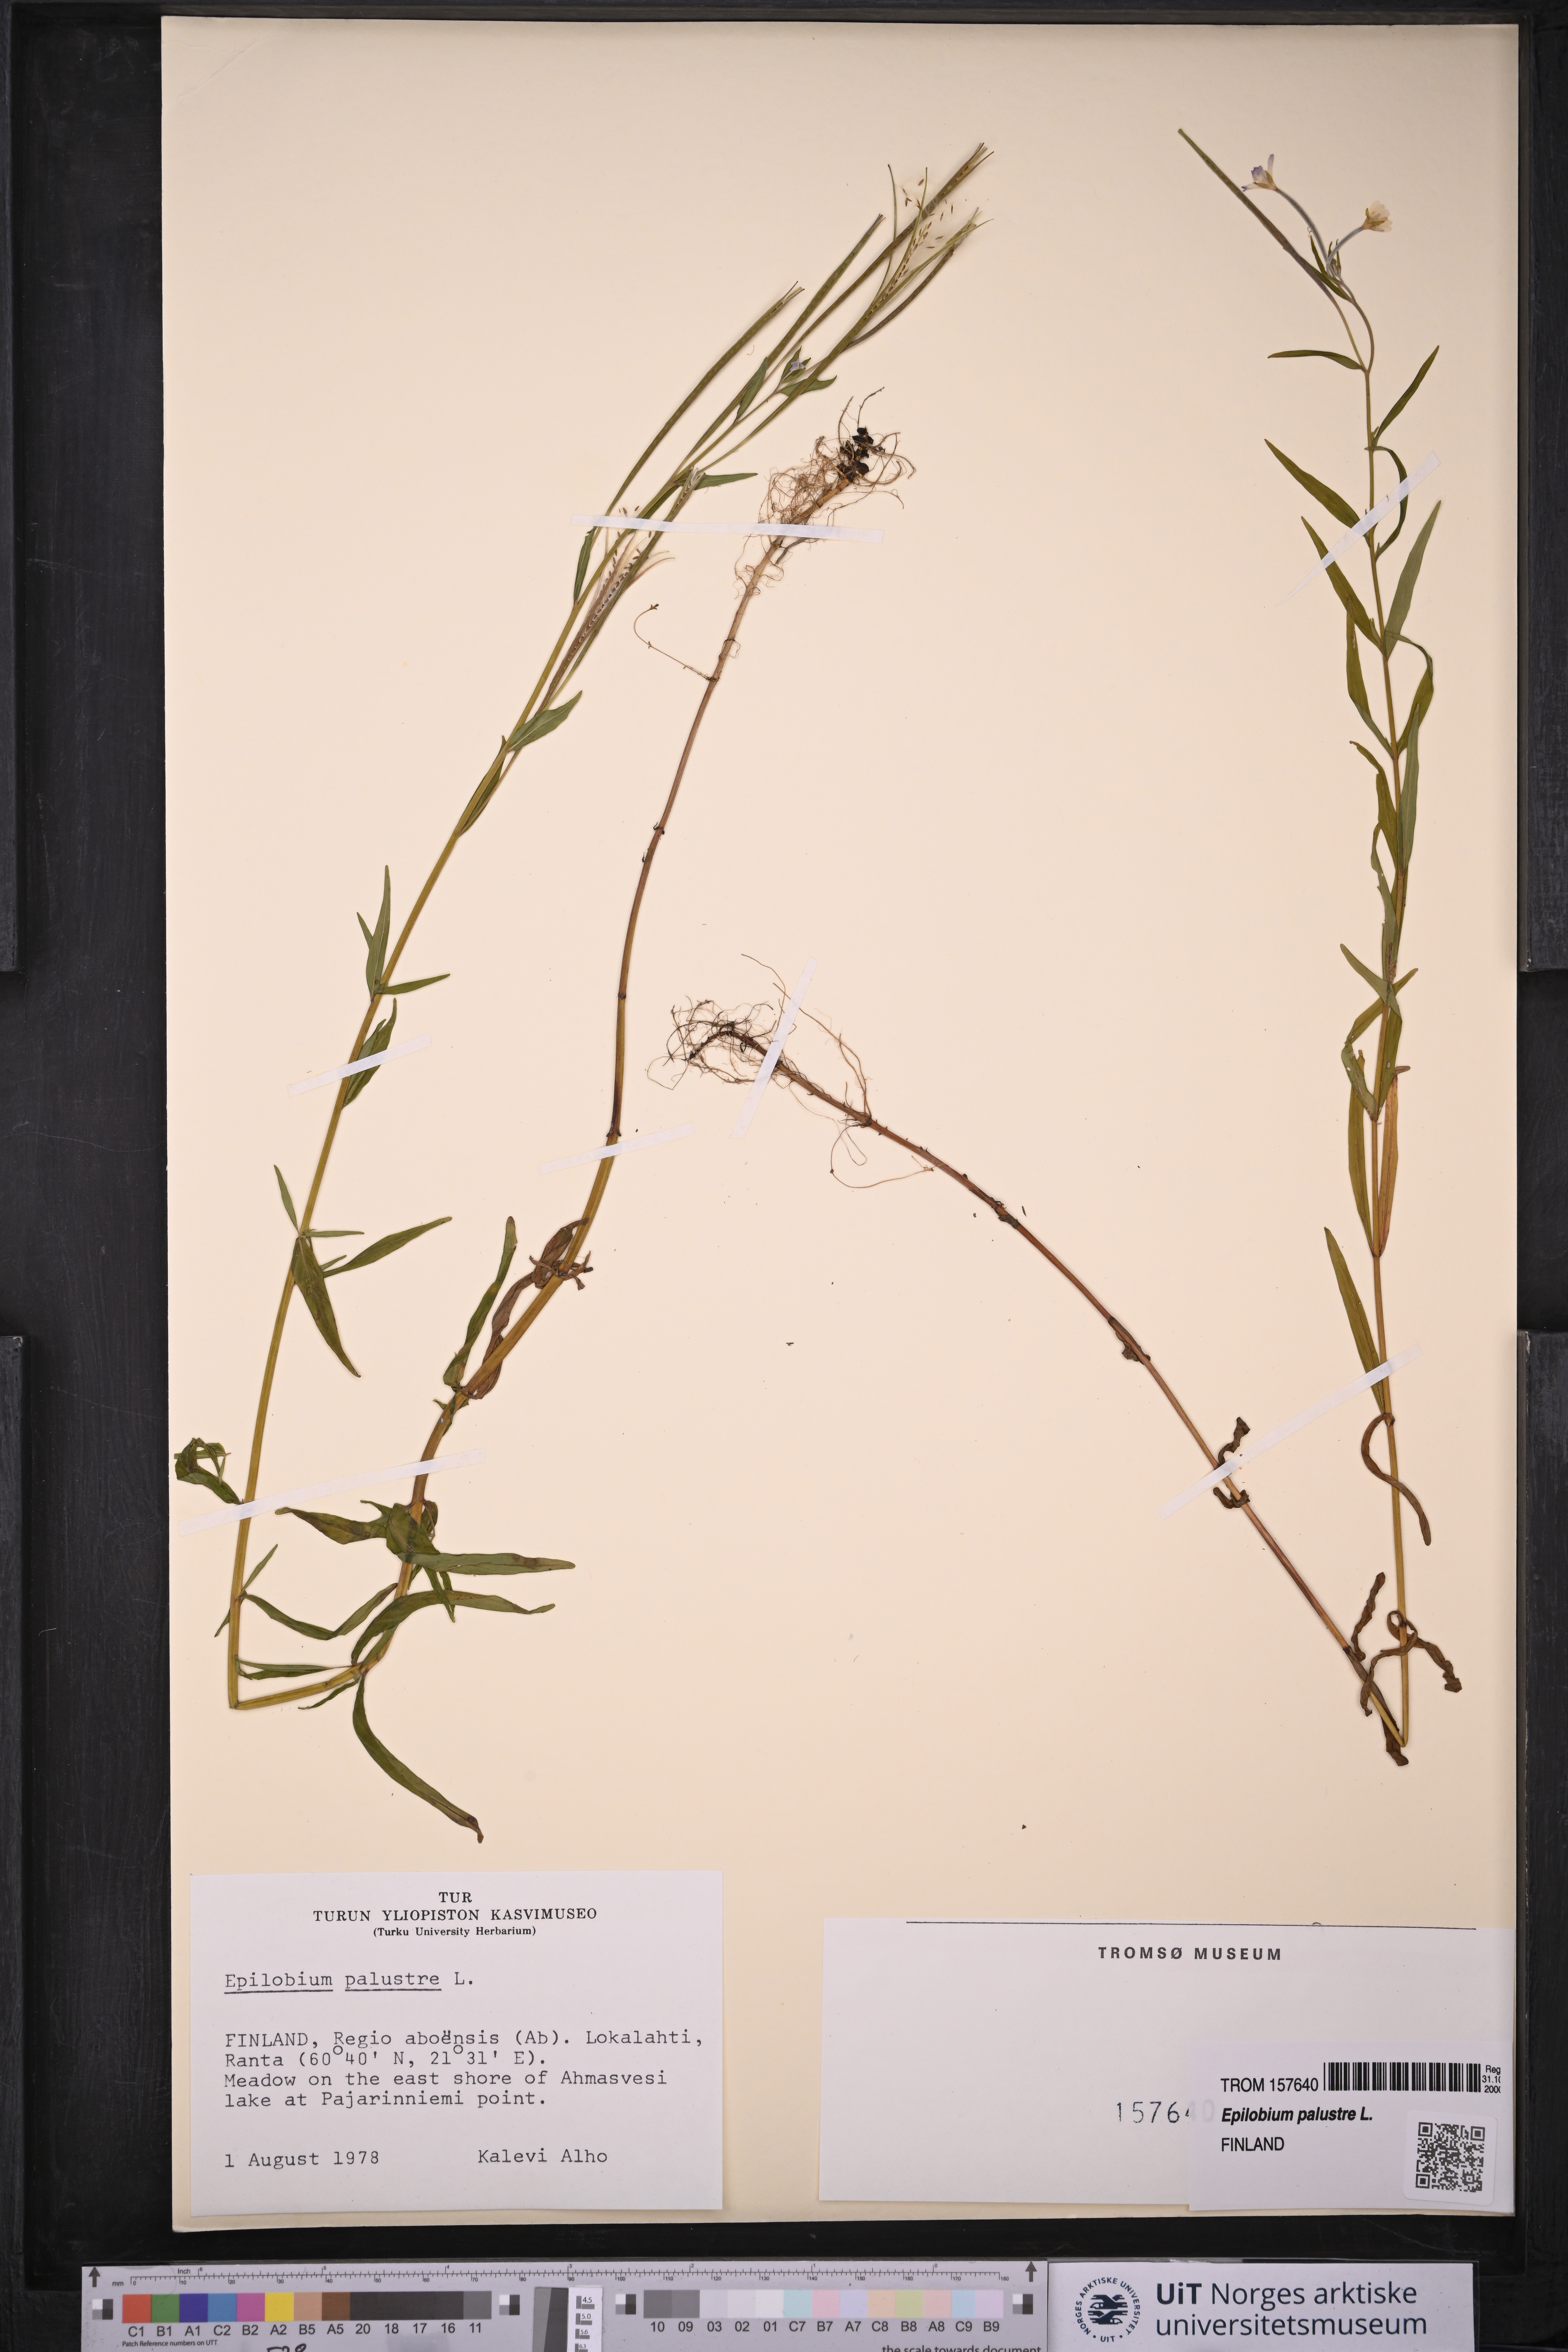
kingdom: Plantae
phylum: Tracheophyta
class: Magnoliopsida
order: Myrtales
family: Onagraceae
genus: Epilobium
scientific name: Epilobium palustre
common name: Marsh willowherb
